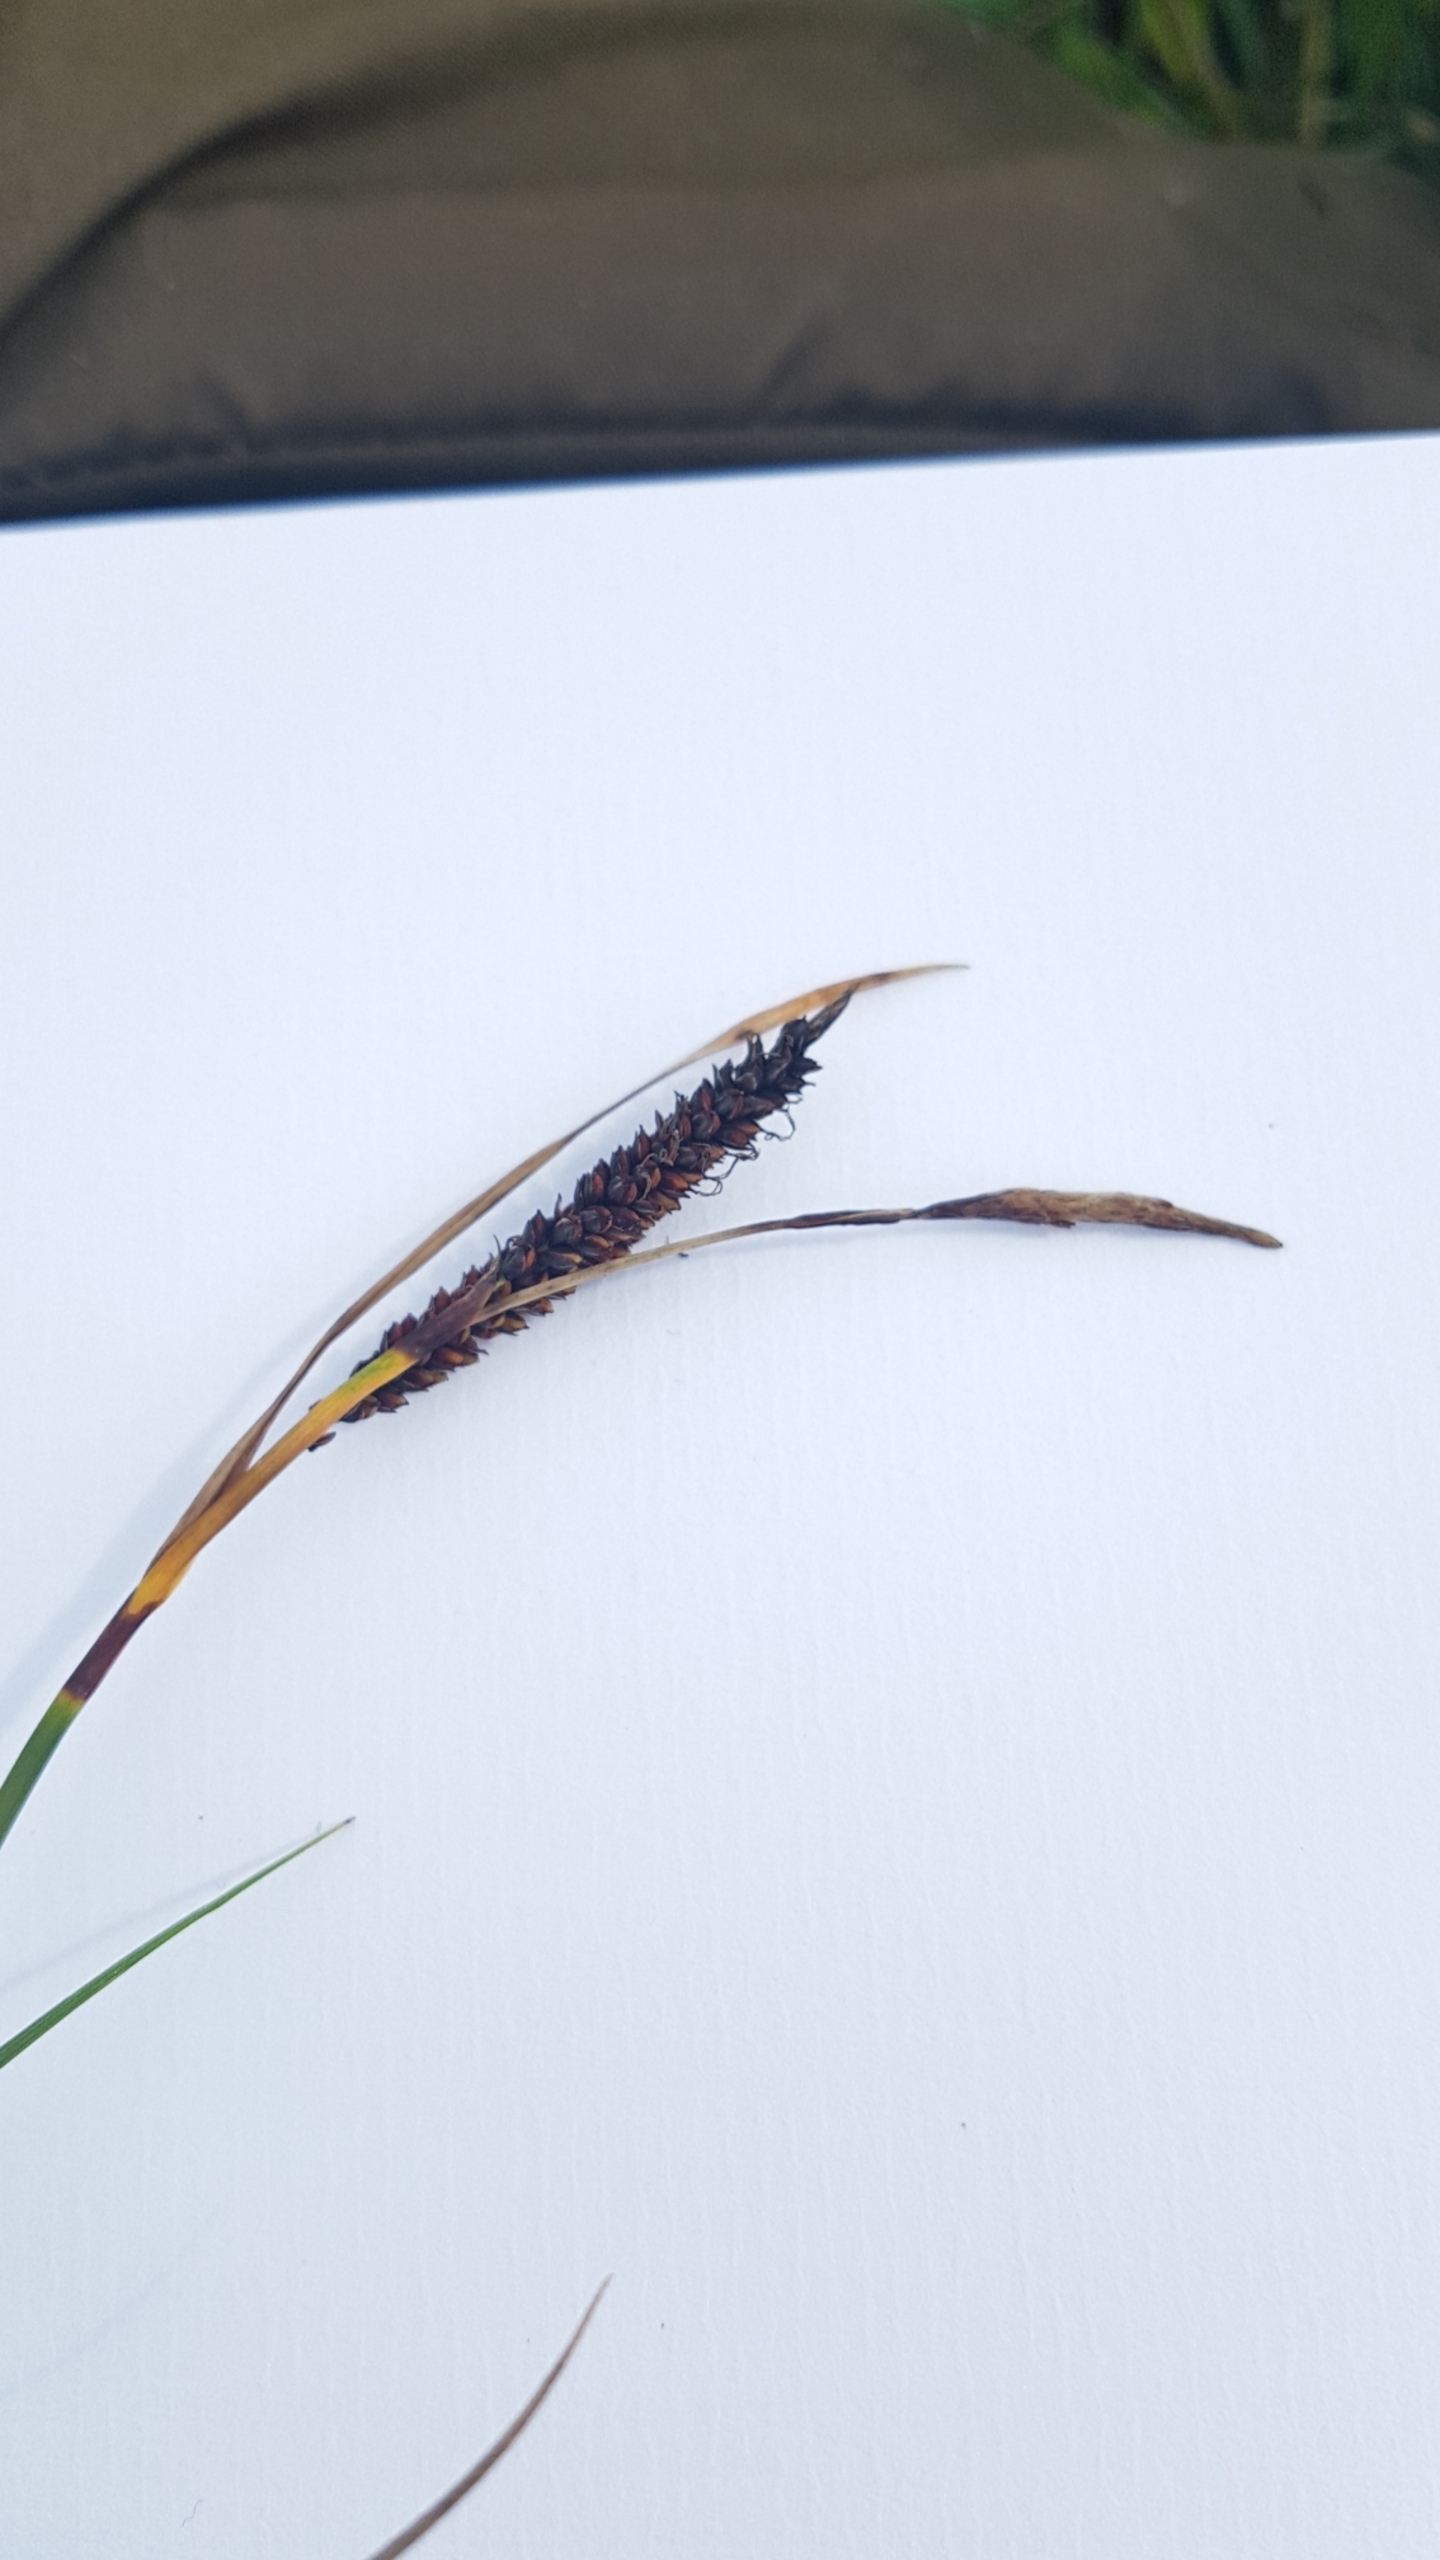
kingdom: Plantae
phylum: Tracheophyta
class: Liliopsida
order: Poales
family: Cyperaceae
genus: Carex
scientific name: Carex flacca
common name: Blågrøn star
